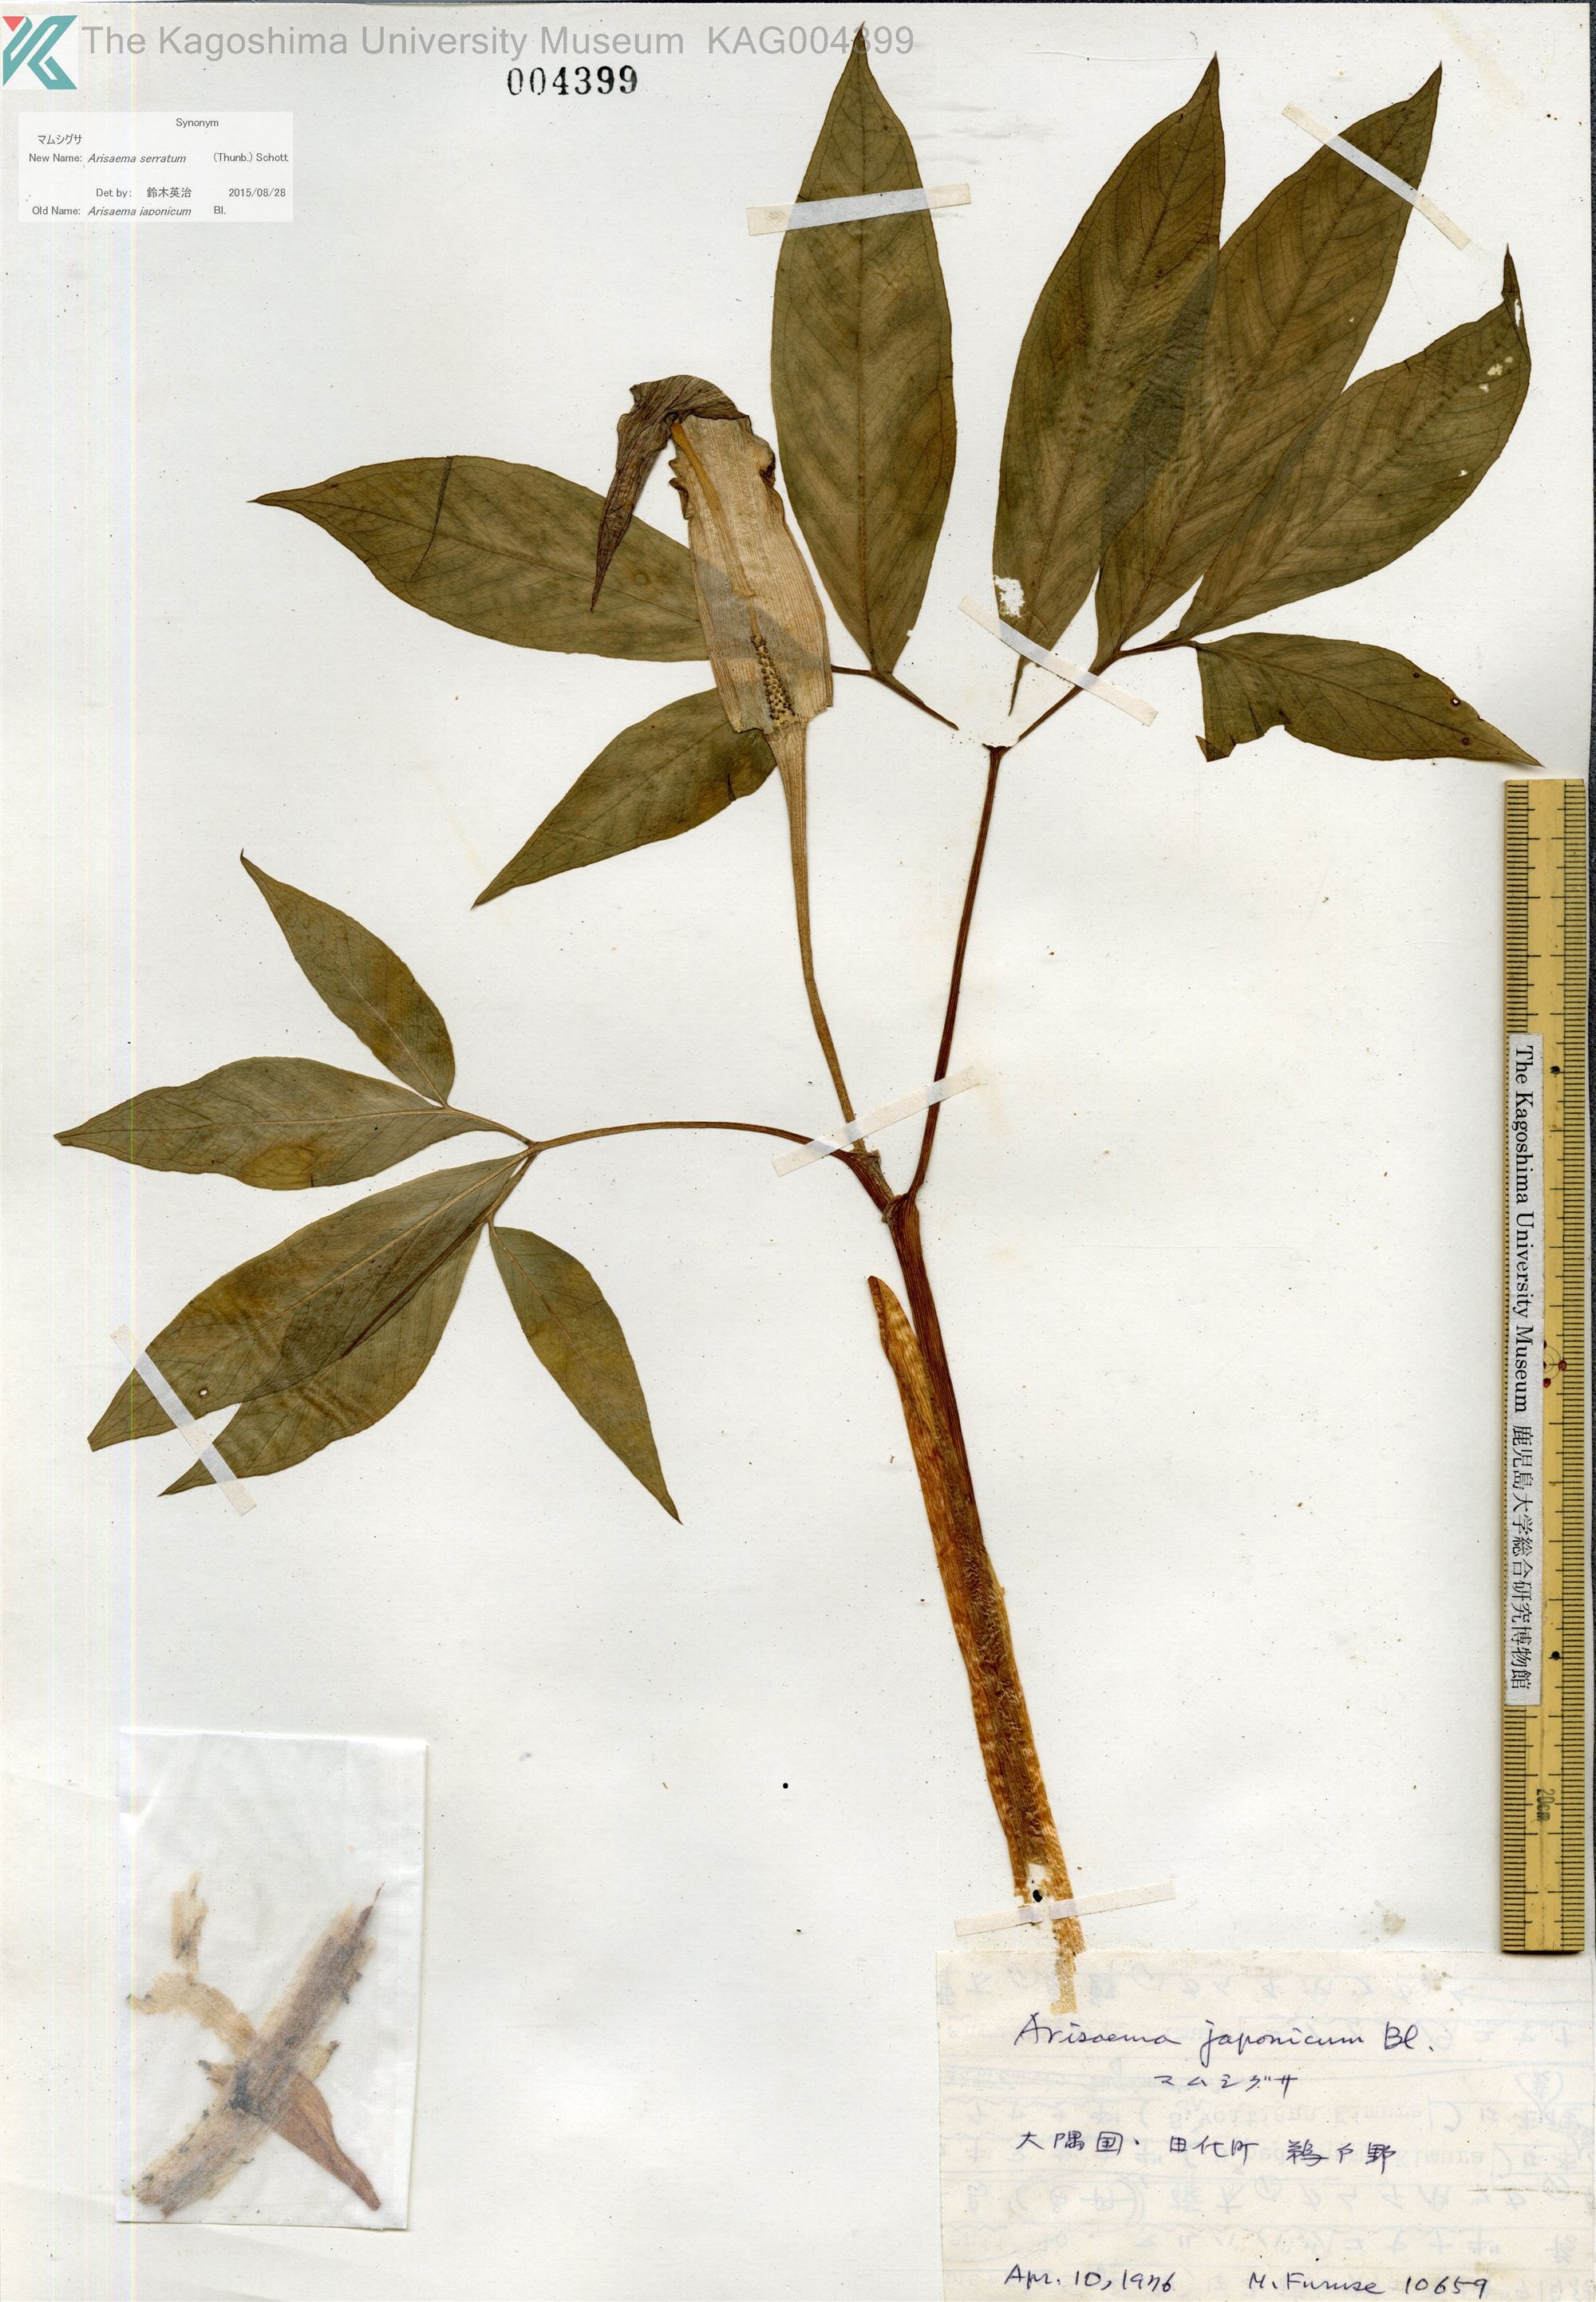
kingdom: Plantae
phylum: Tracheophyta
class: Liliopsida
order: Alismatales
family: Araceae
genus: Arisaema
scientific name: Arisaema serratum
